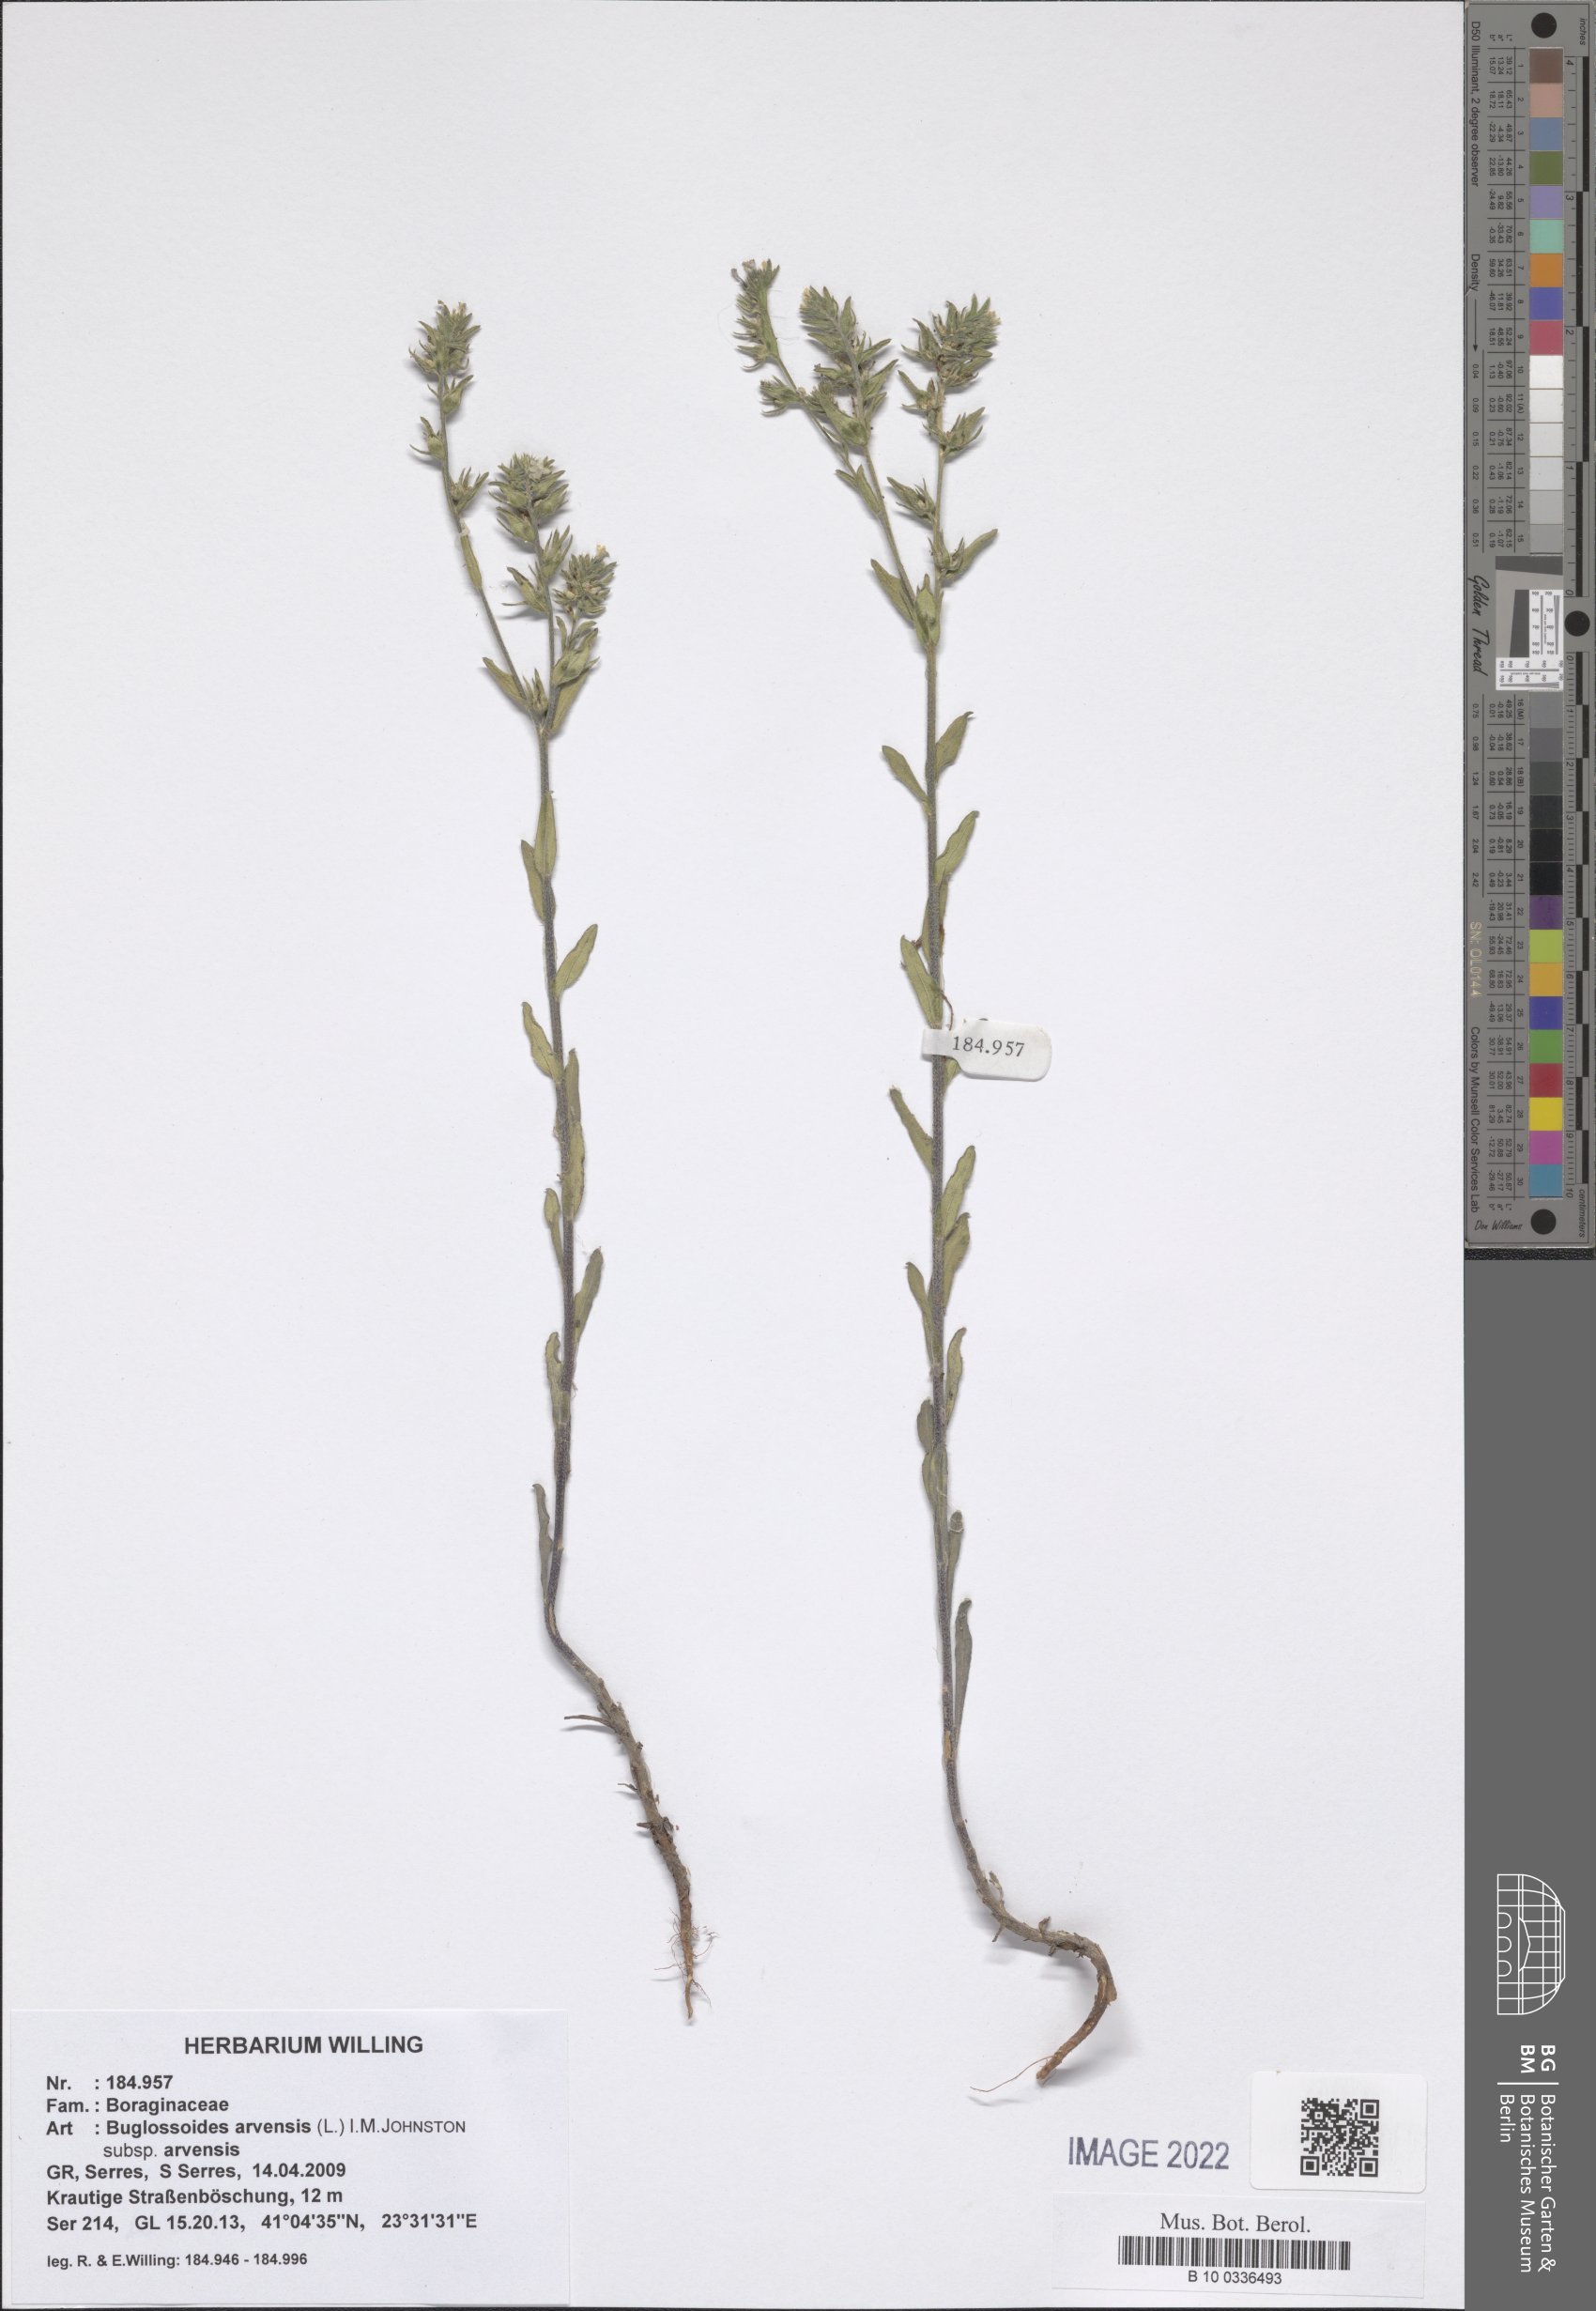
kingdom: Plantae
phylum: Tracheophyta
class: Magnoliopsida
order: Boraginales
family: Boraginaceae
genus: Buglossoides
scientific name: Buglossoides arvensis
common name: Corn gromwell
